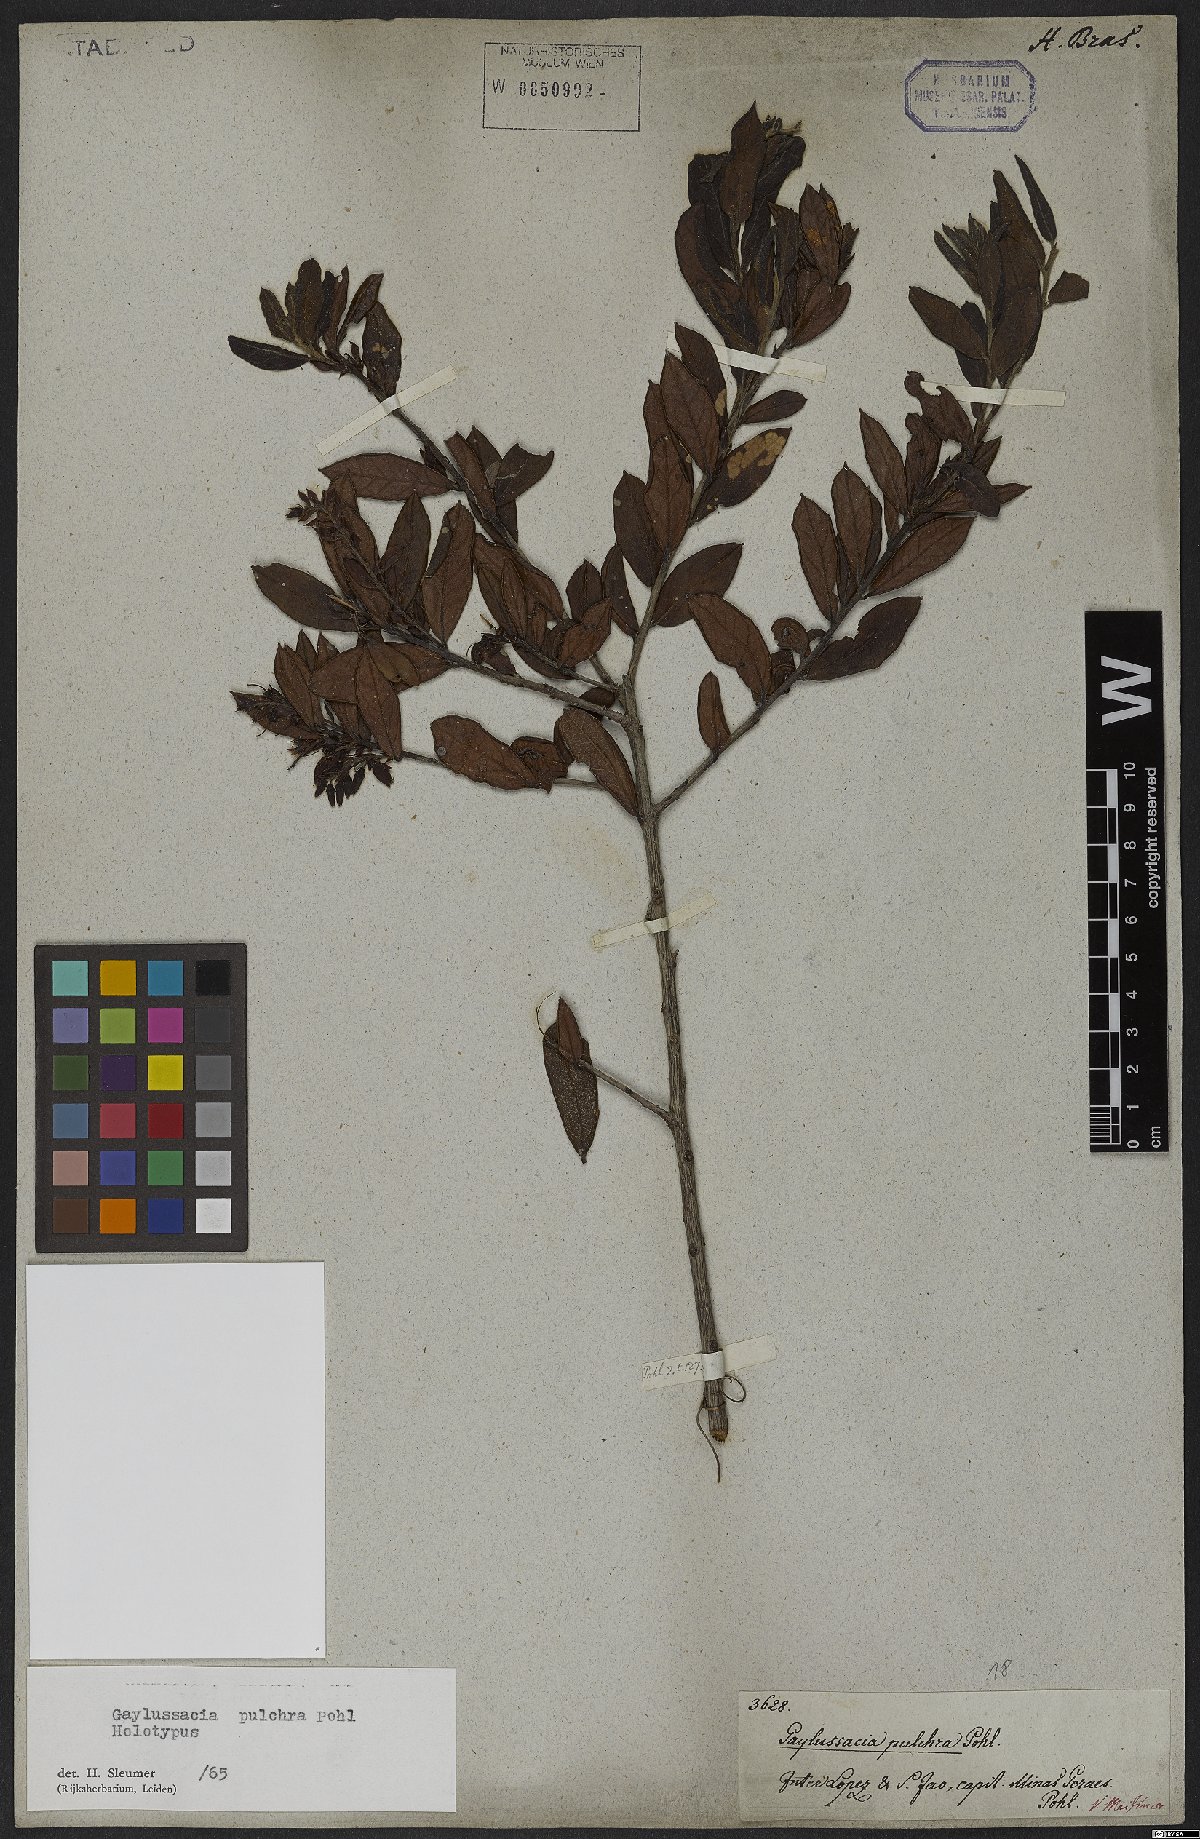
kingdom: Plantae
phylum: Tracheophyta
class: Magnoliopsida
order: Ericales
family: Ericaceae
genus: Gaylussacia
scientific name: Gaylussacia pulchra
